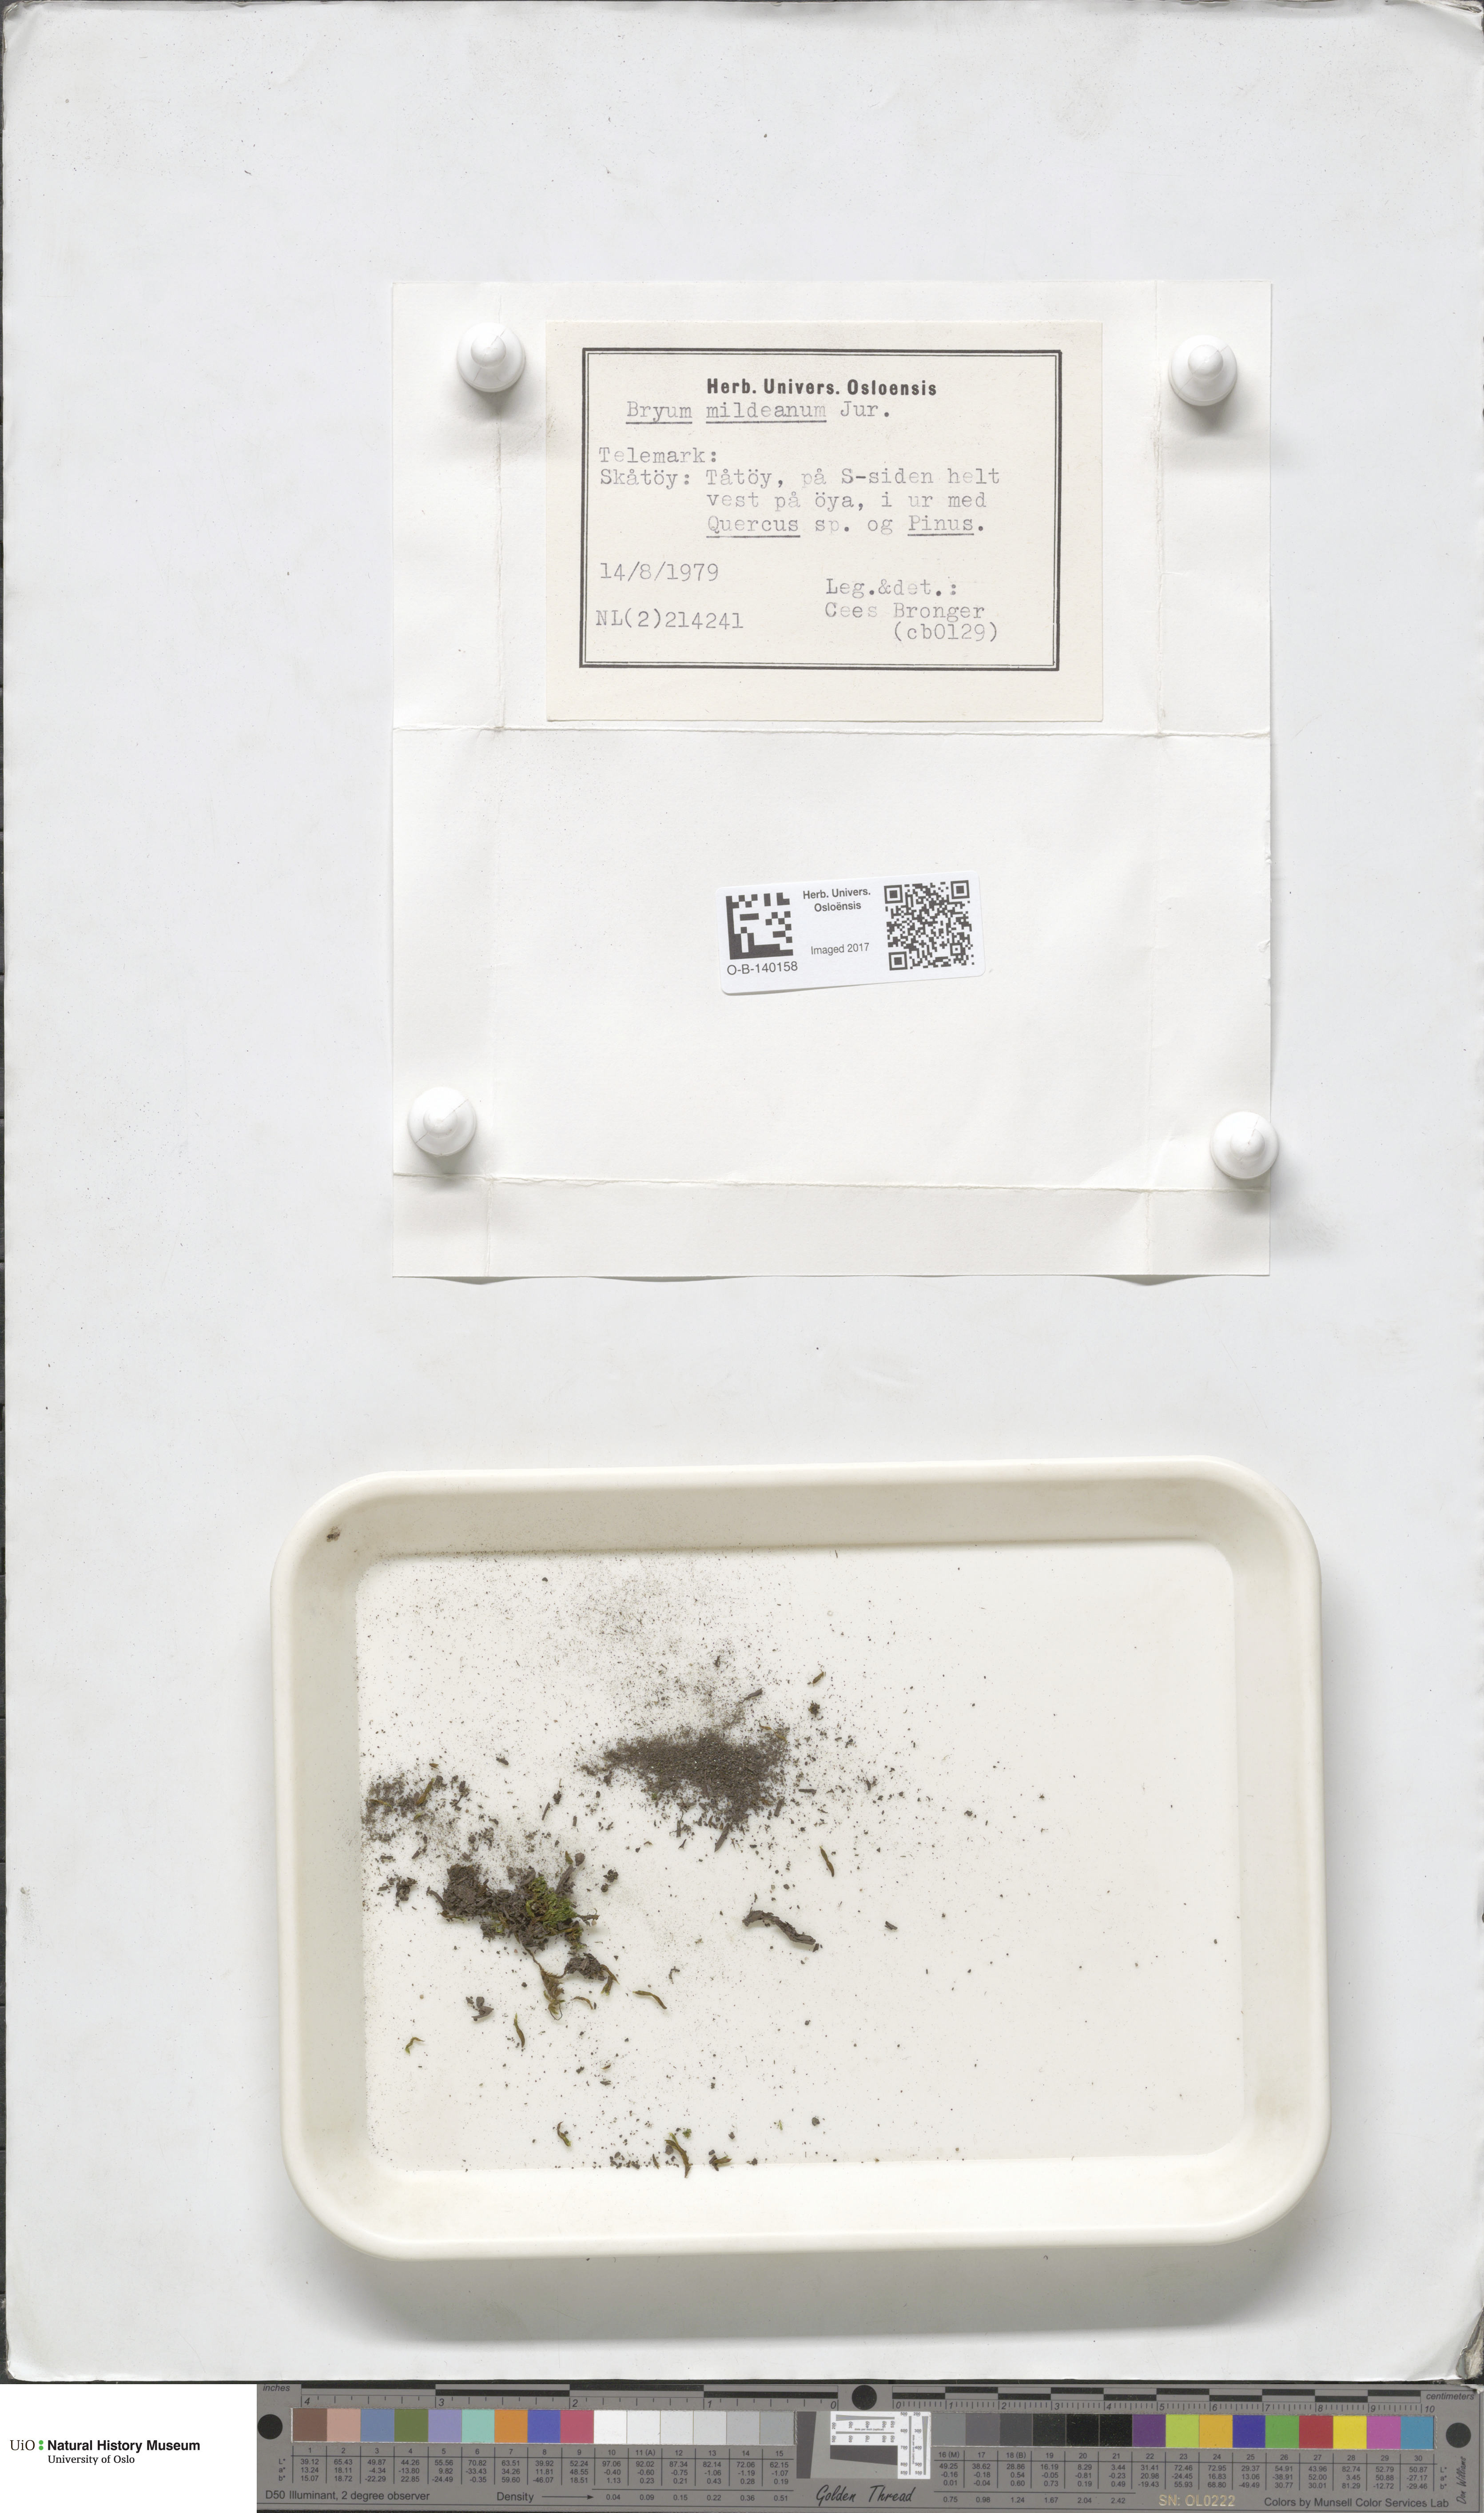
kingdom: Plantae
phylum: Bryophyta
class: Bryopsida
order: Bryales
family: Bryaceae
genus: Imbribryum
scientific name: Imbribryum mildeanum
